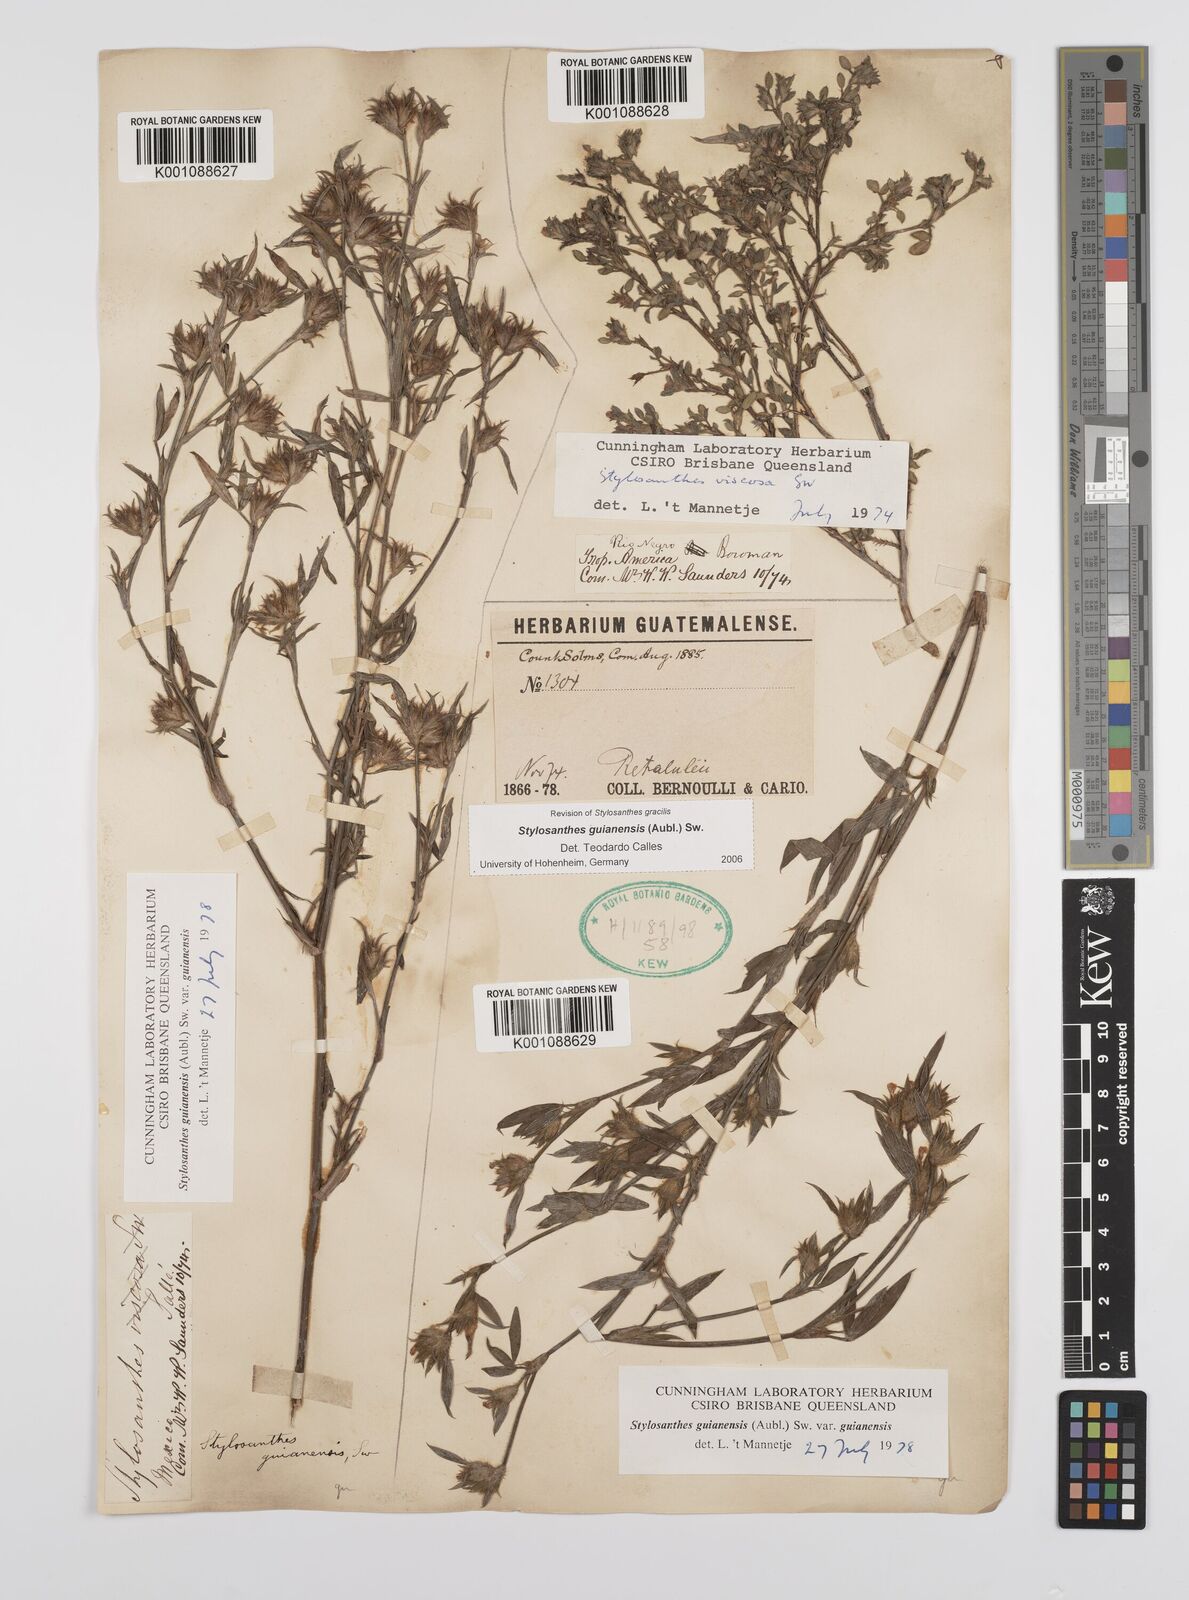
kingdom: Plantae
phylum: Tracheophyta
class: Magnoliopsida
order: Fabales
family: Fabaceae
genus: Stylosanthes
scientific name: Stylosanthes
